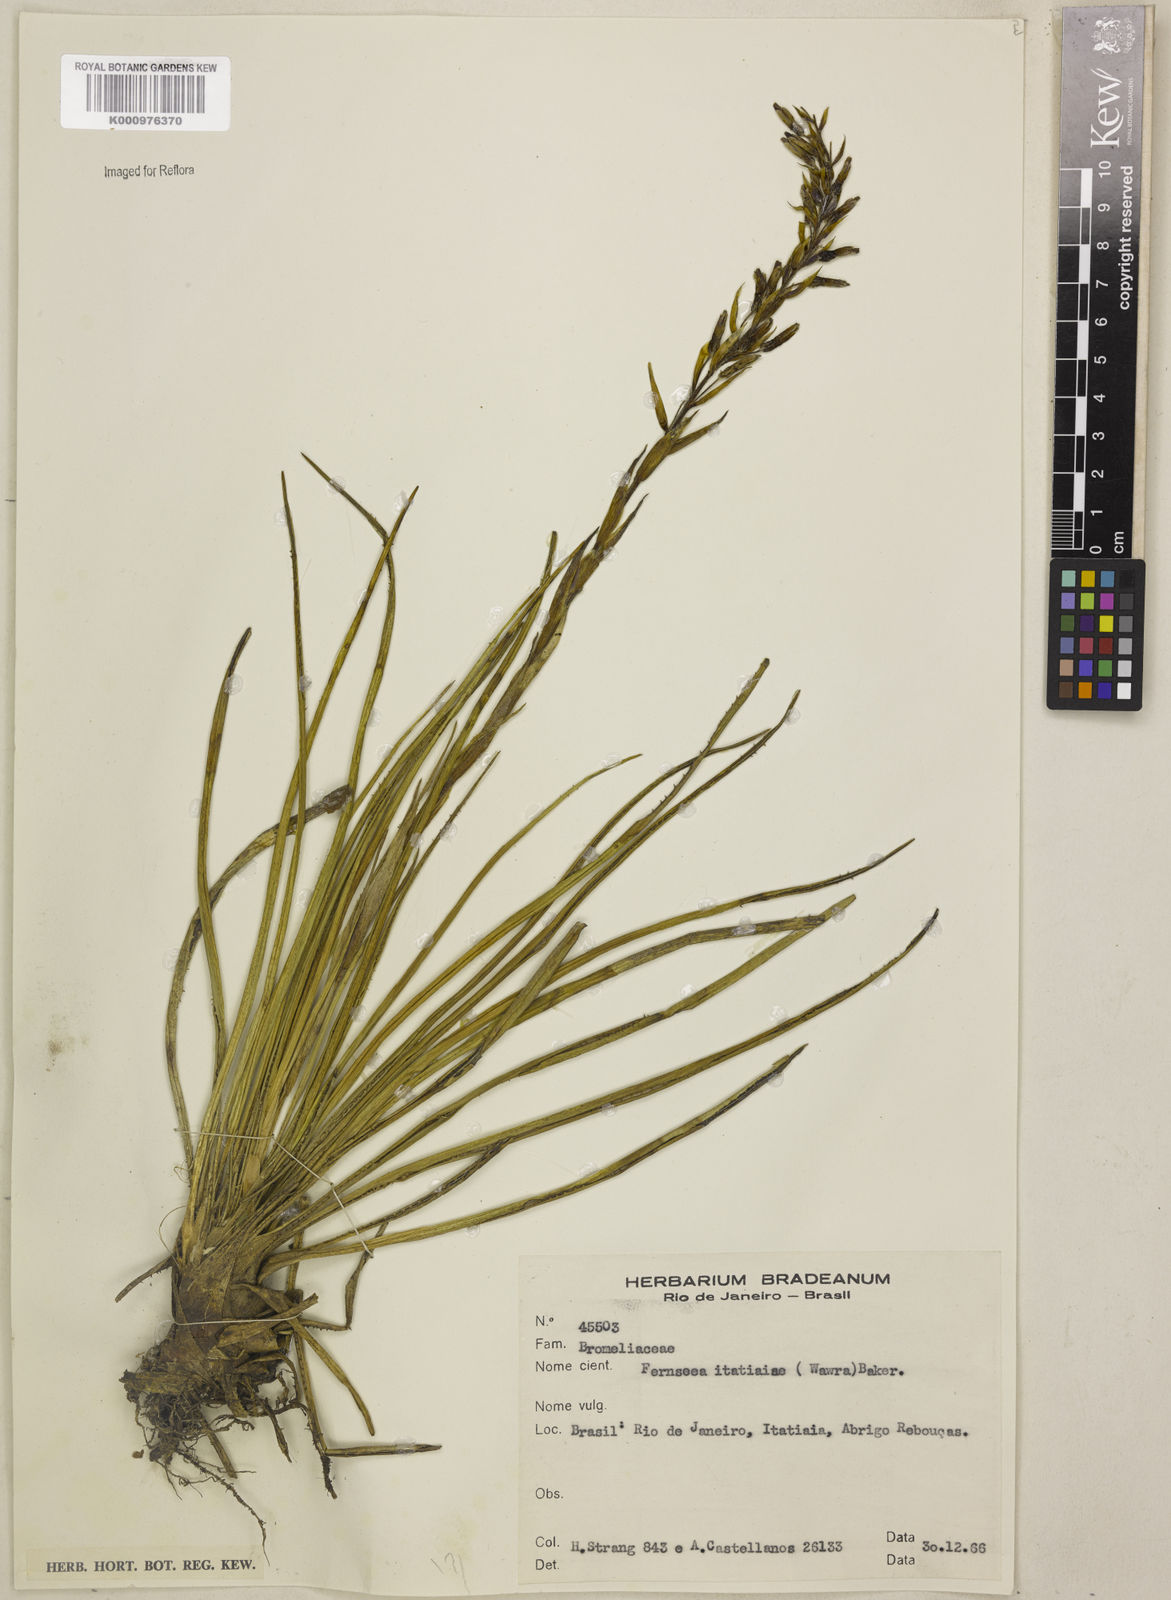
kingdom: Plantae
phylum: Tracheophyta
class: Liliopsida
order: Poales
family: Bromeliaceae
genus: Fernseea
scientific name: Fernseea itatiaiae
